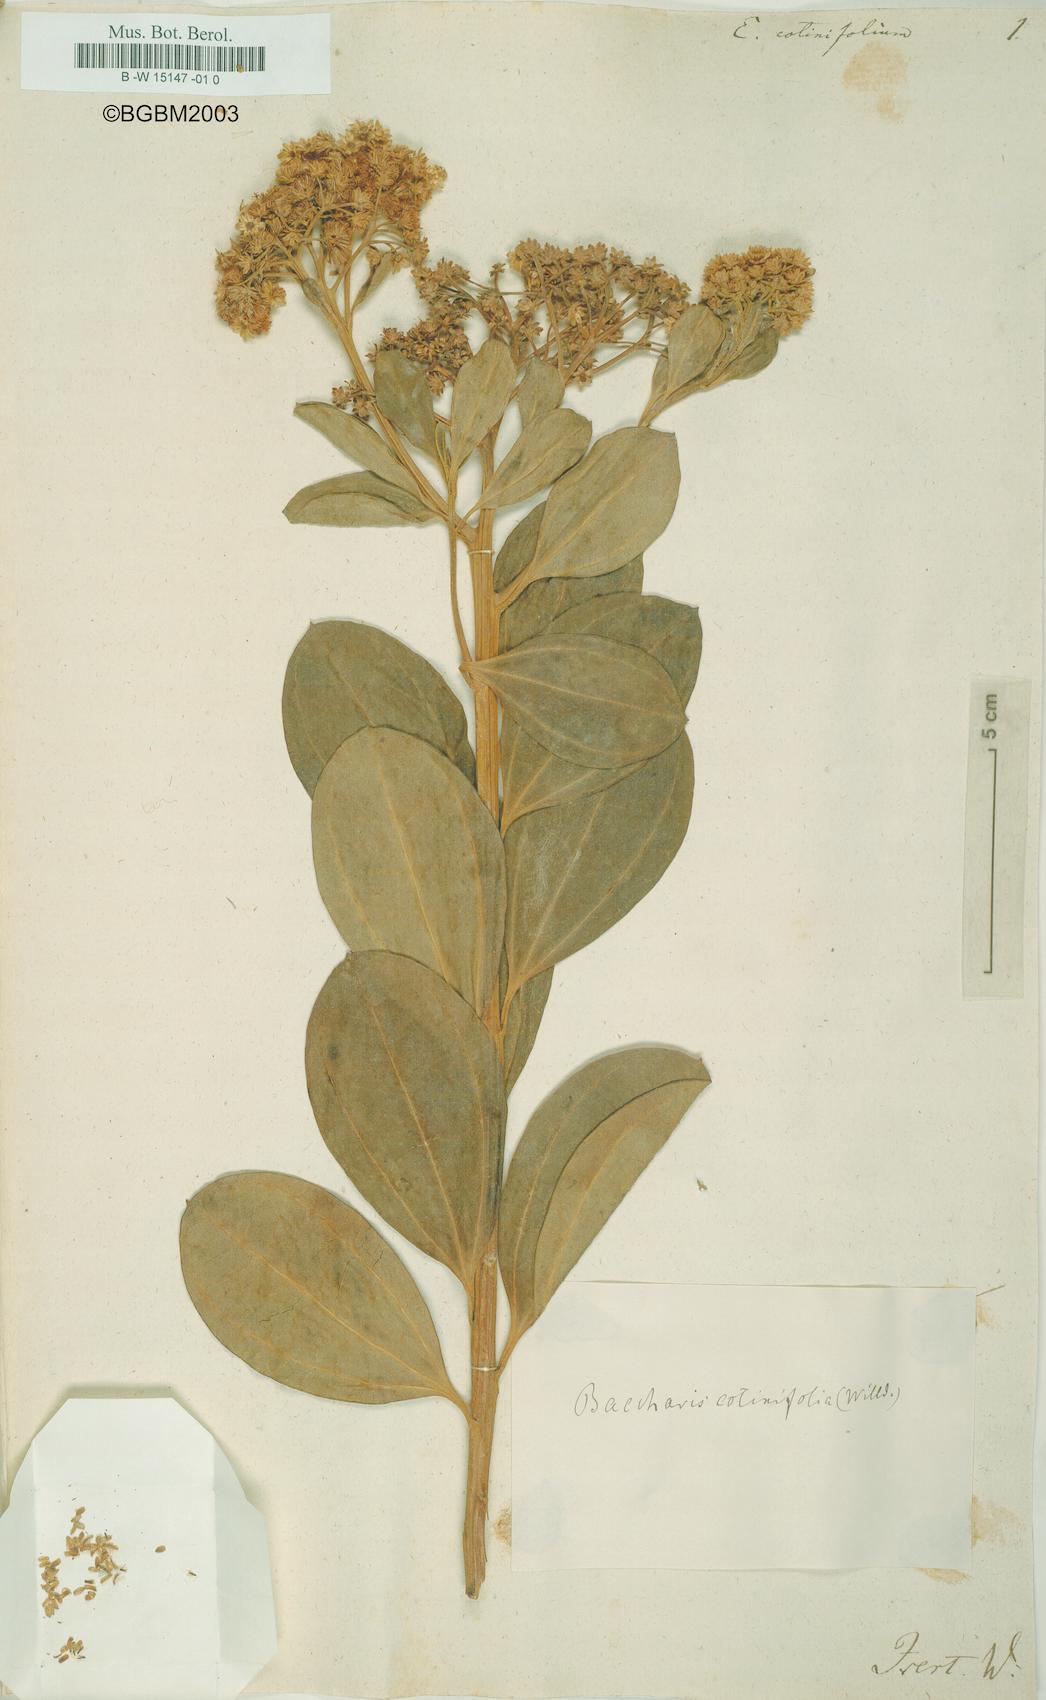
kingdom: Plantae
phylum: Tracheophyta
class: Magnoliopsida
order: Asterales
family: Asteraceae
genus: Baccharis
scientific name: Baccharis pedunculata
